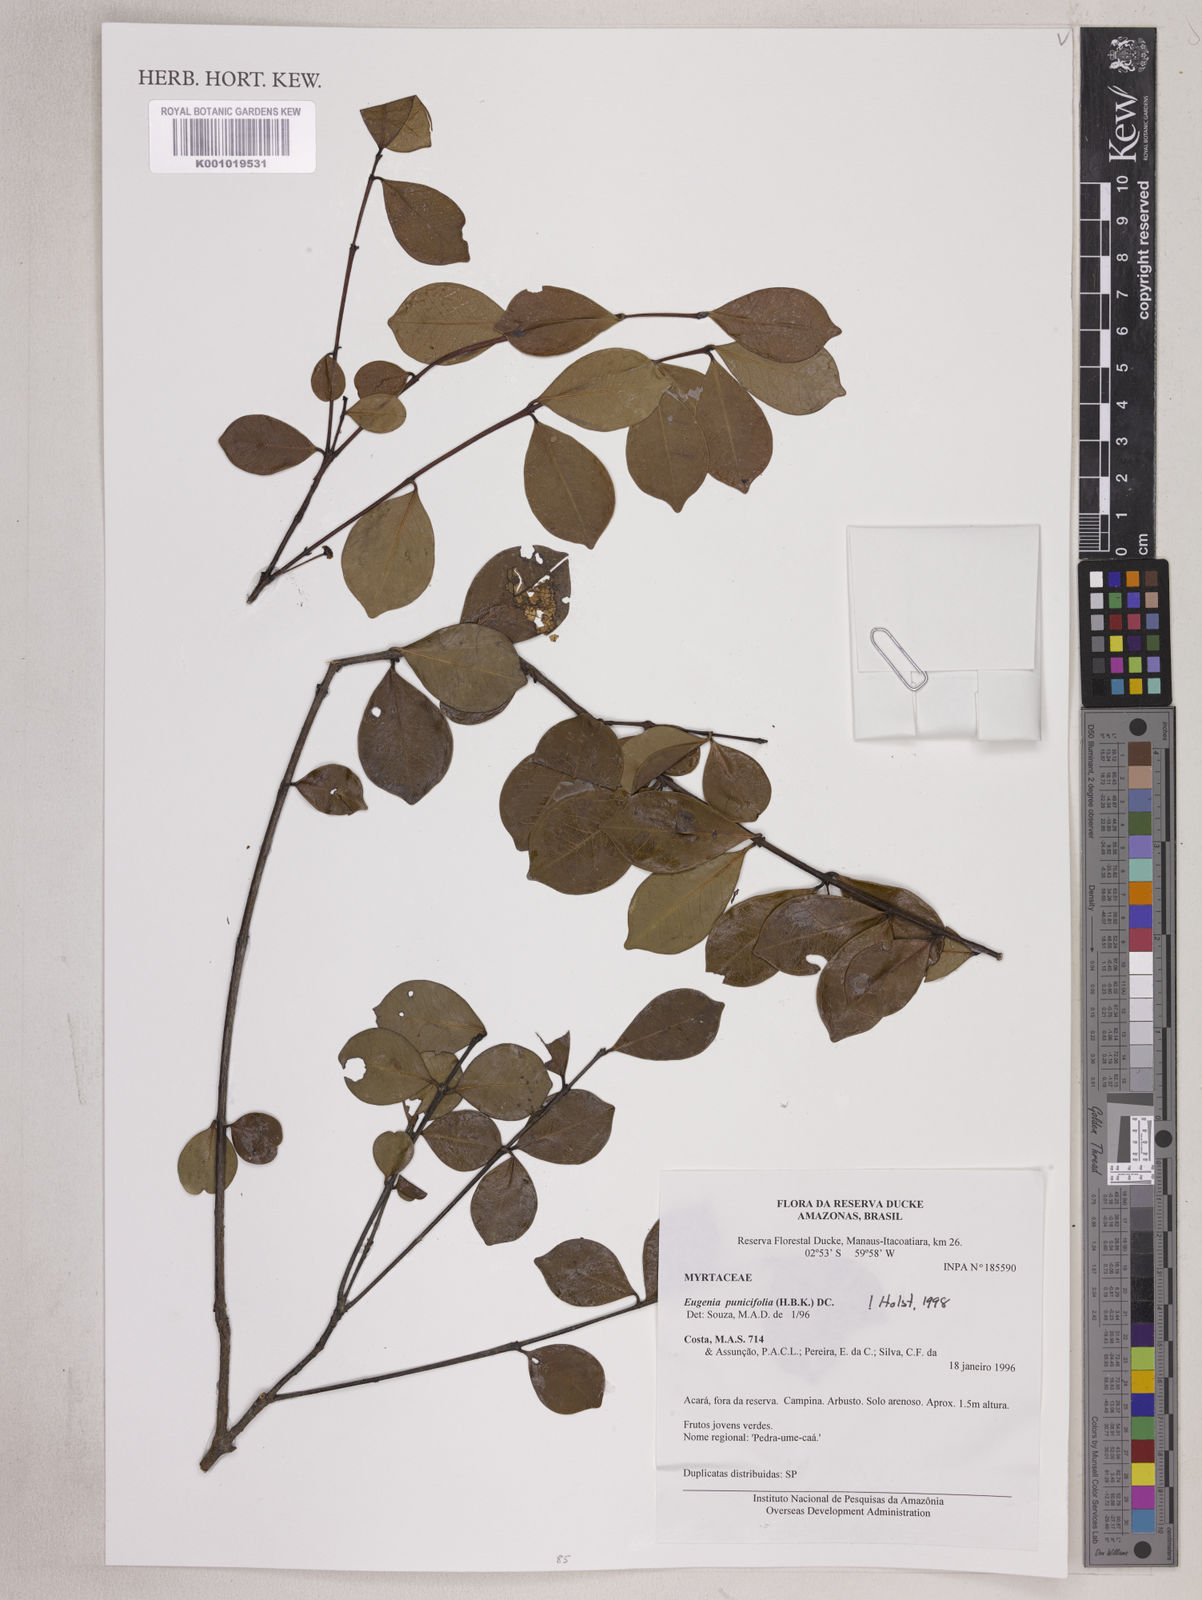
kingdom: Plantae
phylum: Tracheophyta
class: Magnoliopsida
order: Myrtales
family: Myrtaceae
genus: Eugenia
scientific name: Eugenia punicifolia
